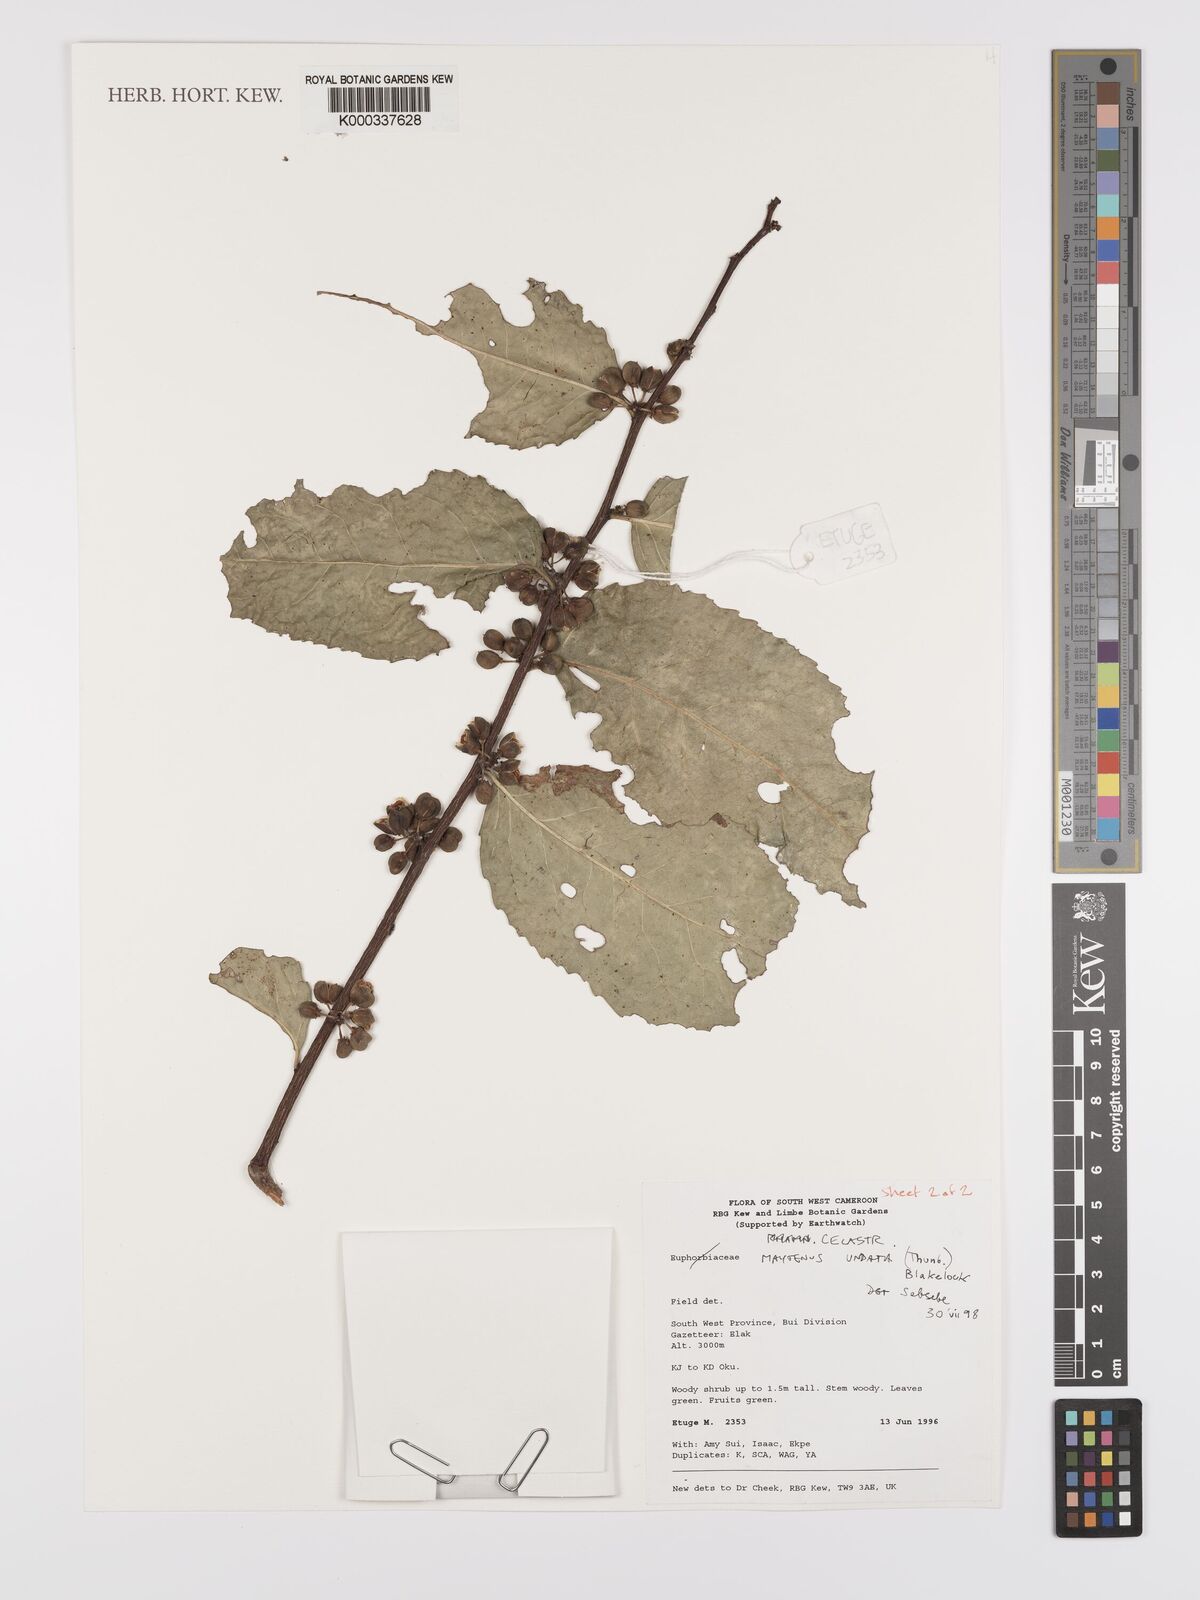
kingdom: Plantae
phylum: Tracheophyta
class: Magnoliopsida
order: Celastrales
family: Celastraceae
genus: Gymnosporia
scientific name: Gymnosporia undata
